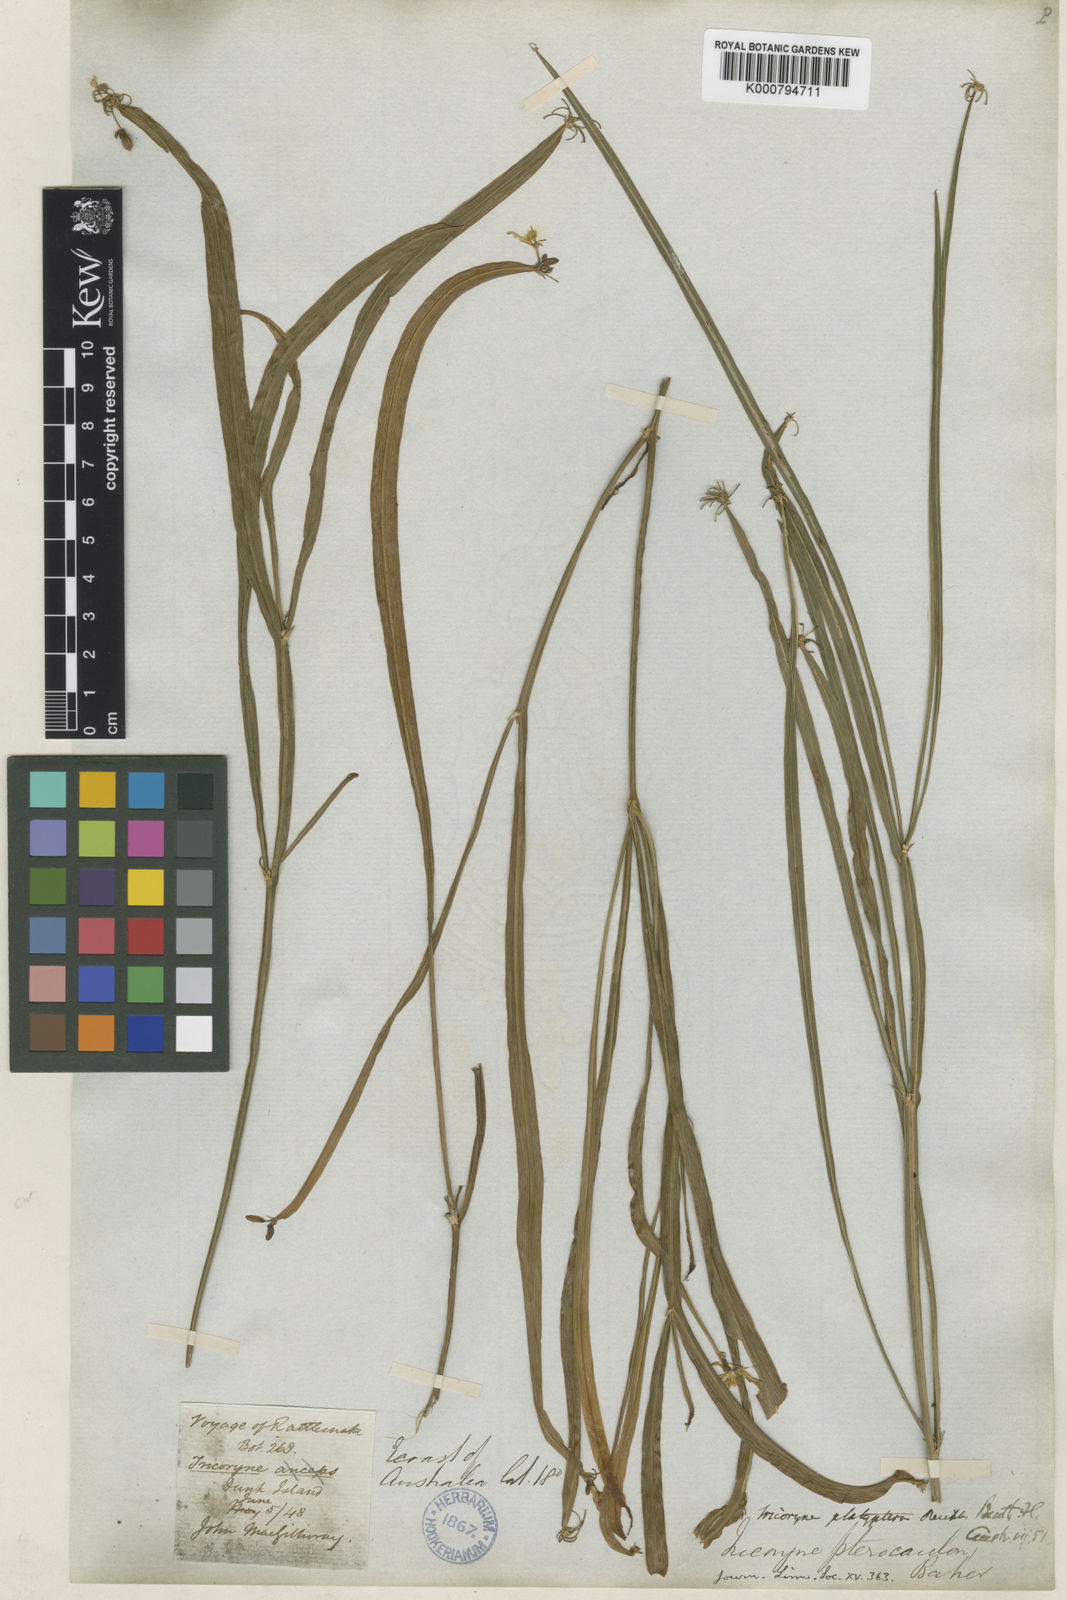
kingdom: Plantae
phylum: Tracheophyta
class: Liliopsida
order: Asparagales
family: Asphodelaceae
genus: Tricoryne
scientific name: Tricoryne platyptera
